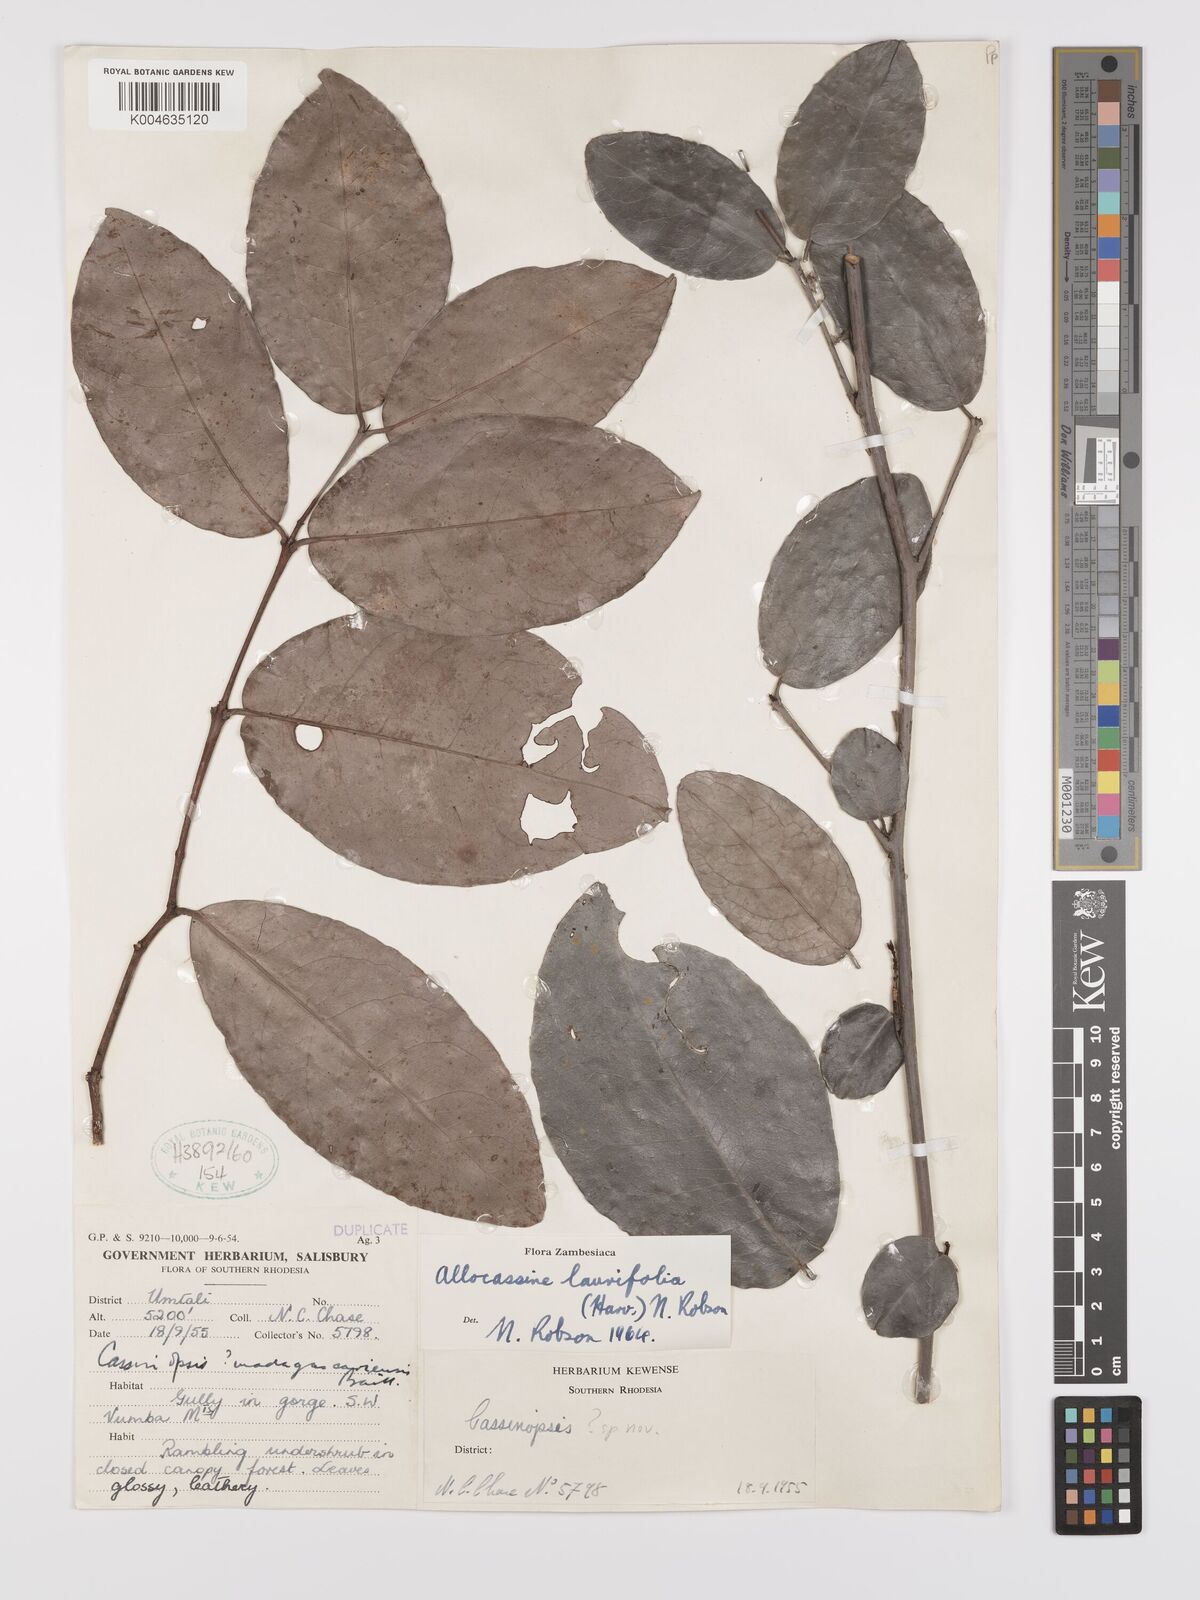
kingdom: Plantae
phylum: Tracheophyta
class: Magnoliopsida
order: Celastrales
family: Celastraceae
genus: Allocassine
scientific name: Allocassine laurifolia
